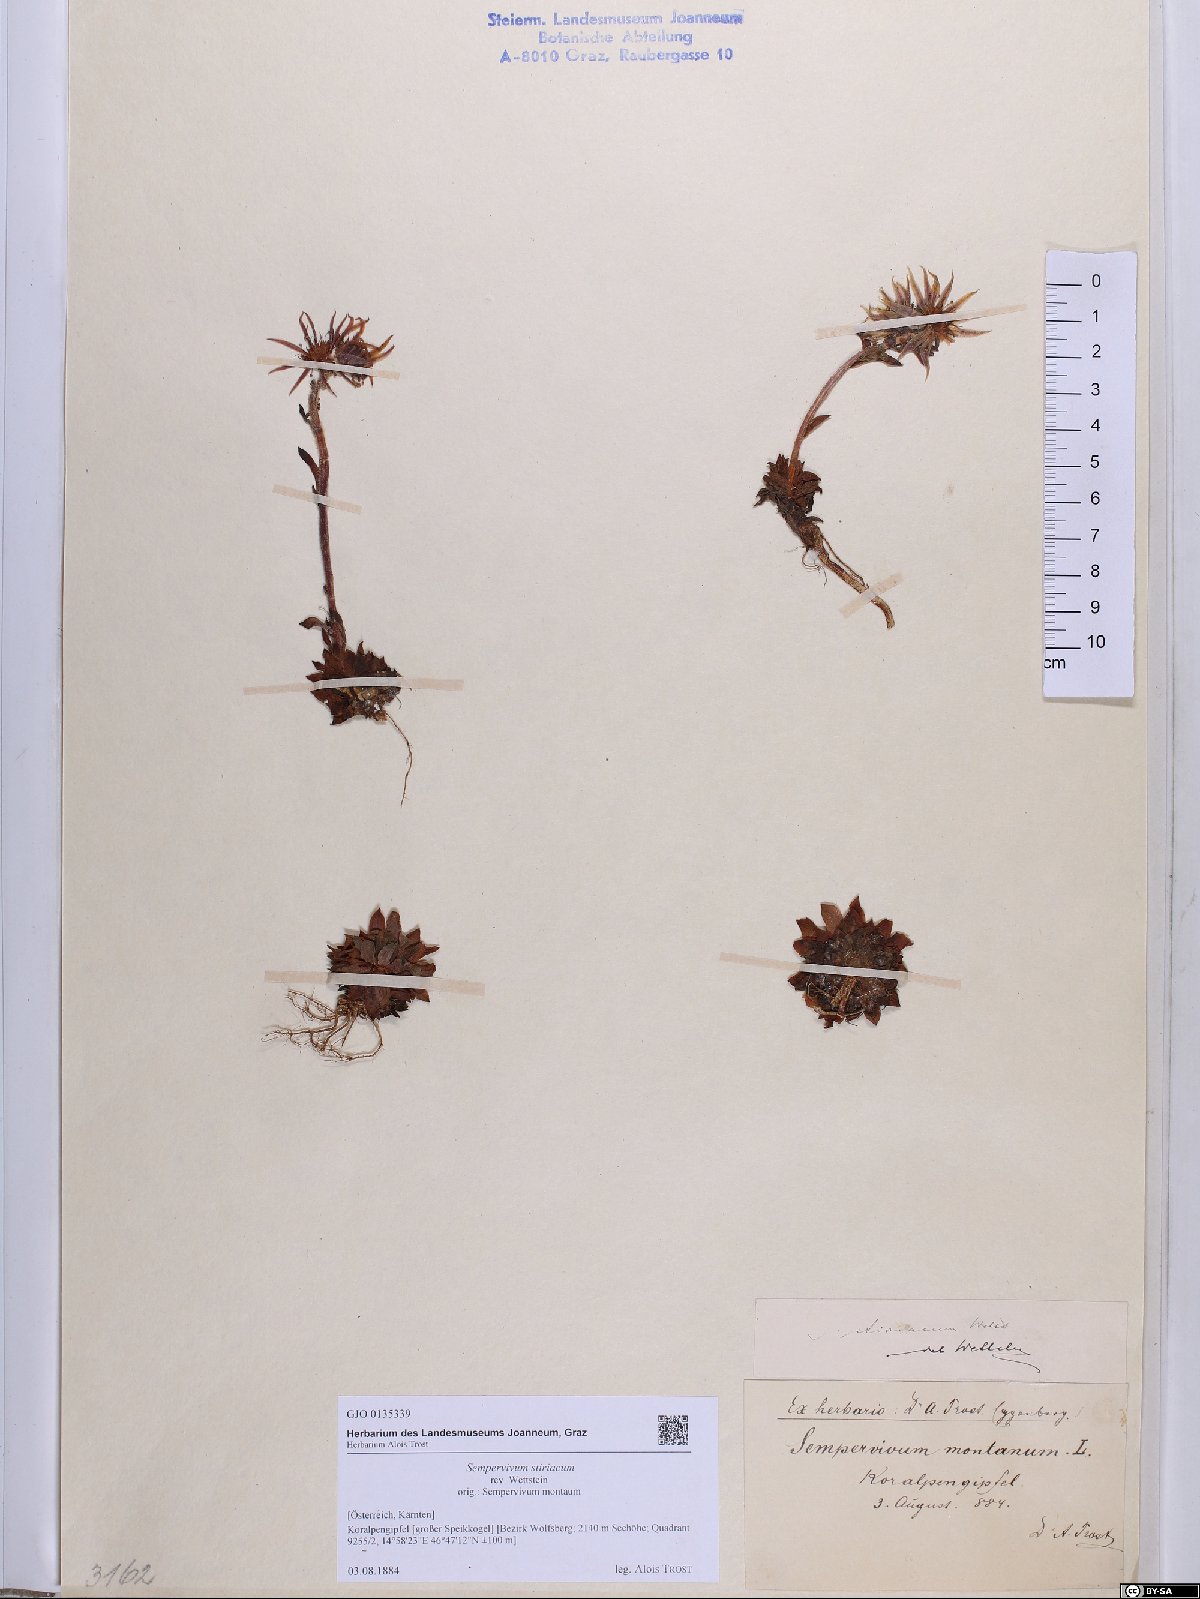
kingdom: Plantae
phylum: Tracheophyta
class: Magnoliopsida
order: Saxifragales
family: Crassulaceae
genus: Sempervivum
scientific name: Sempervivum montanum
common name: Mountain house-leek
